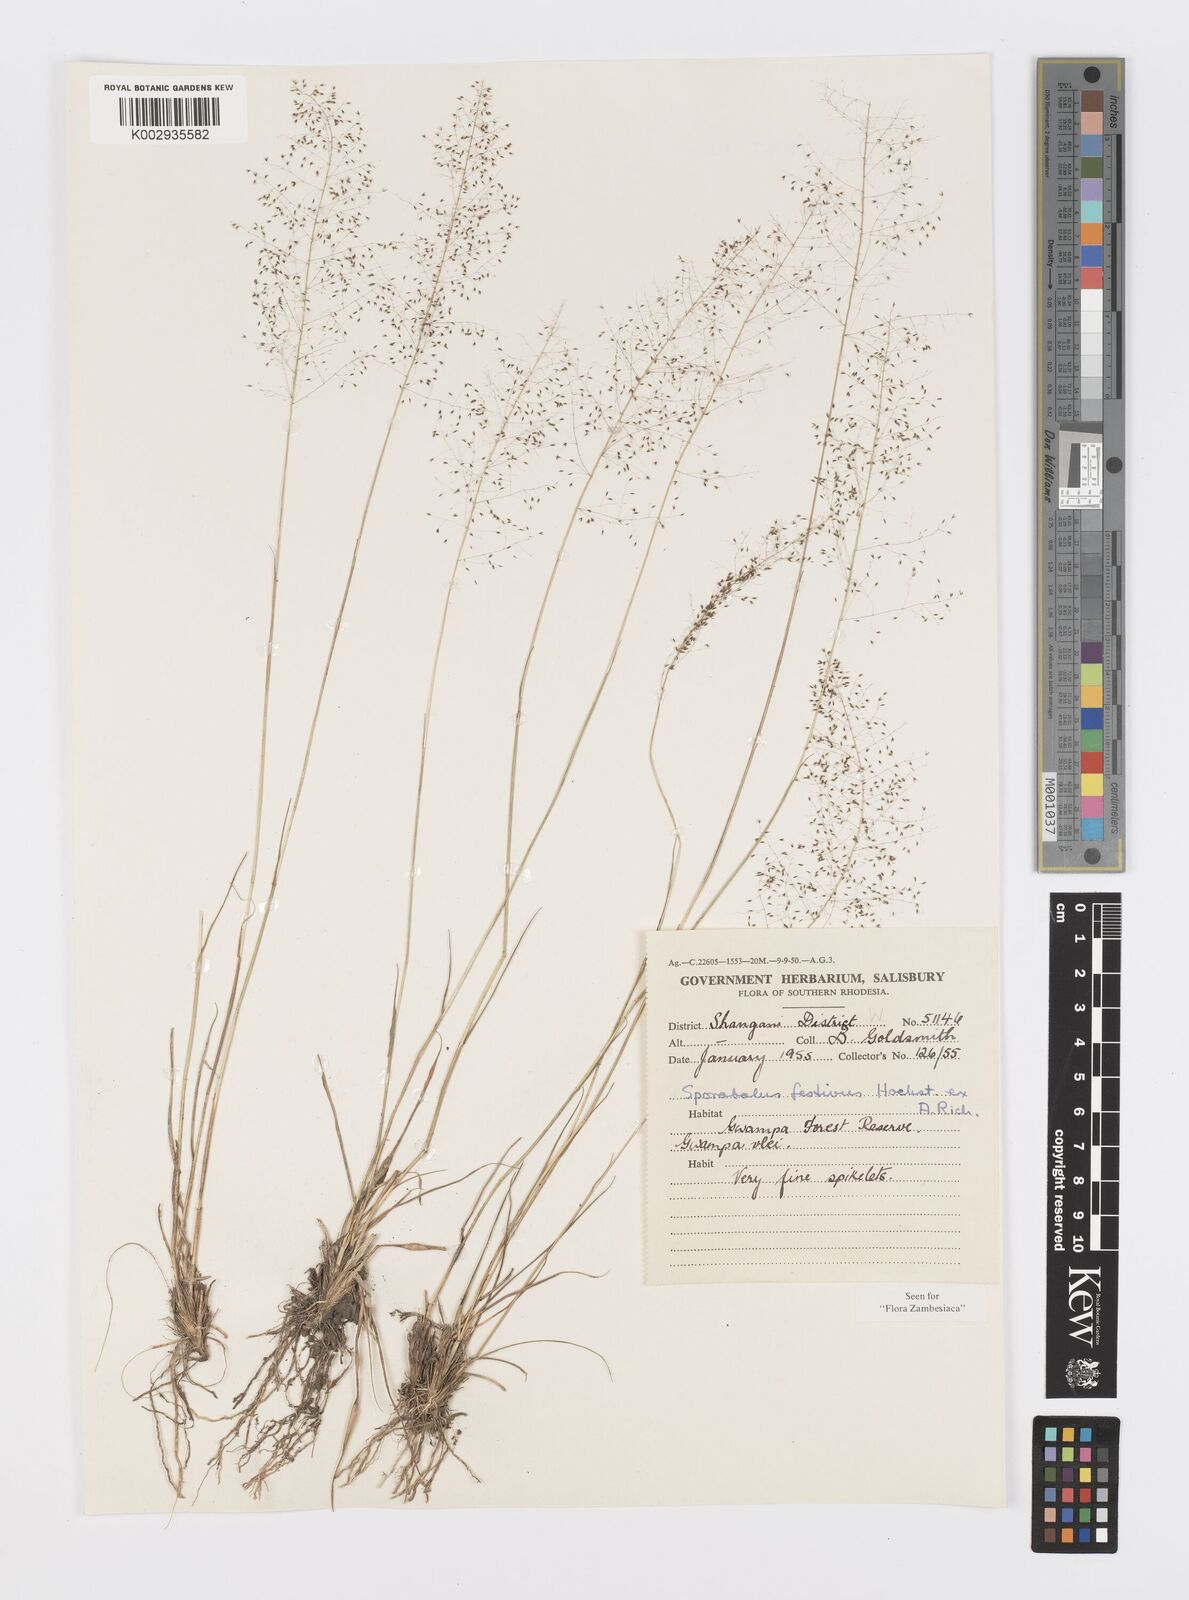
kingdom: Plantae
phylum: Tracheophyta
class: Liliopsida
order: Poales
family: Poaceae
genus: Sporobolus
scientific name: Sporobolus festivus
